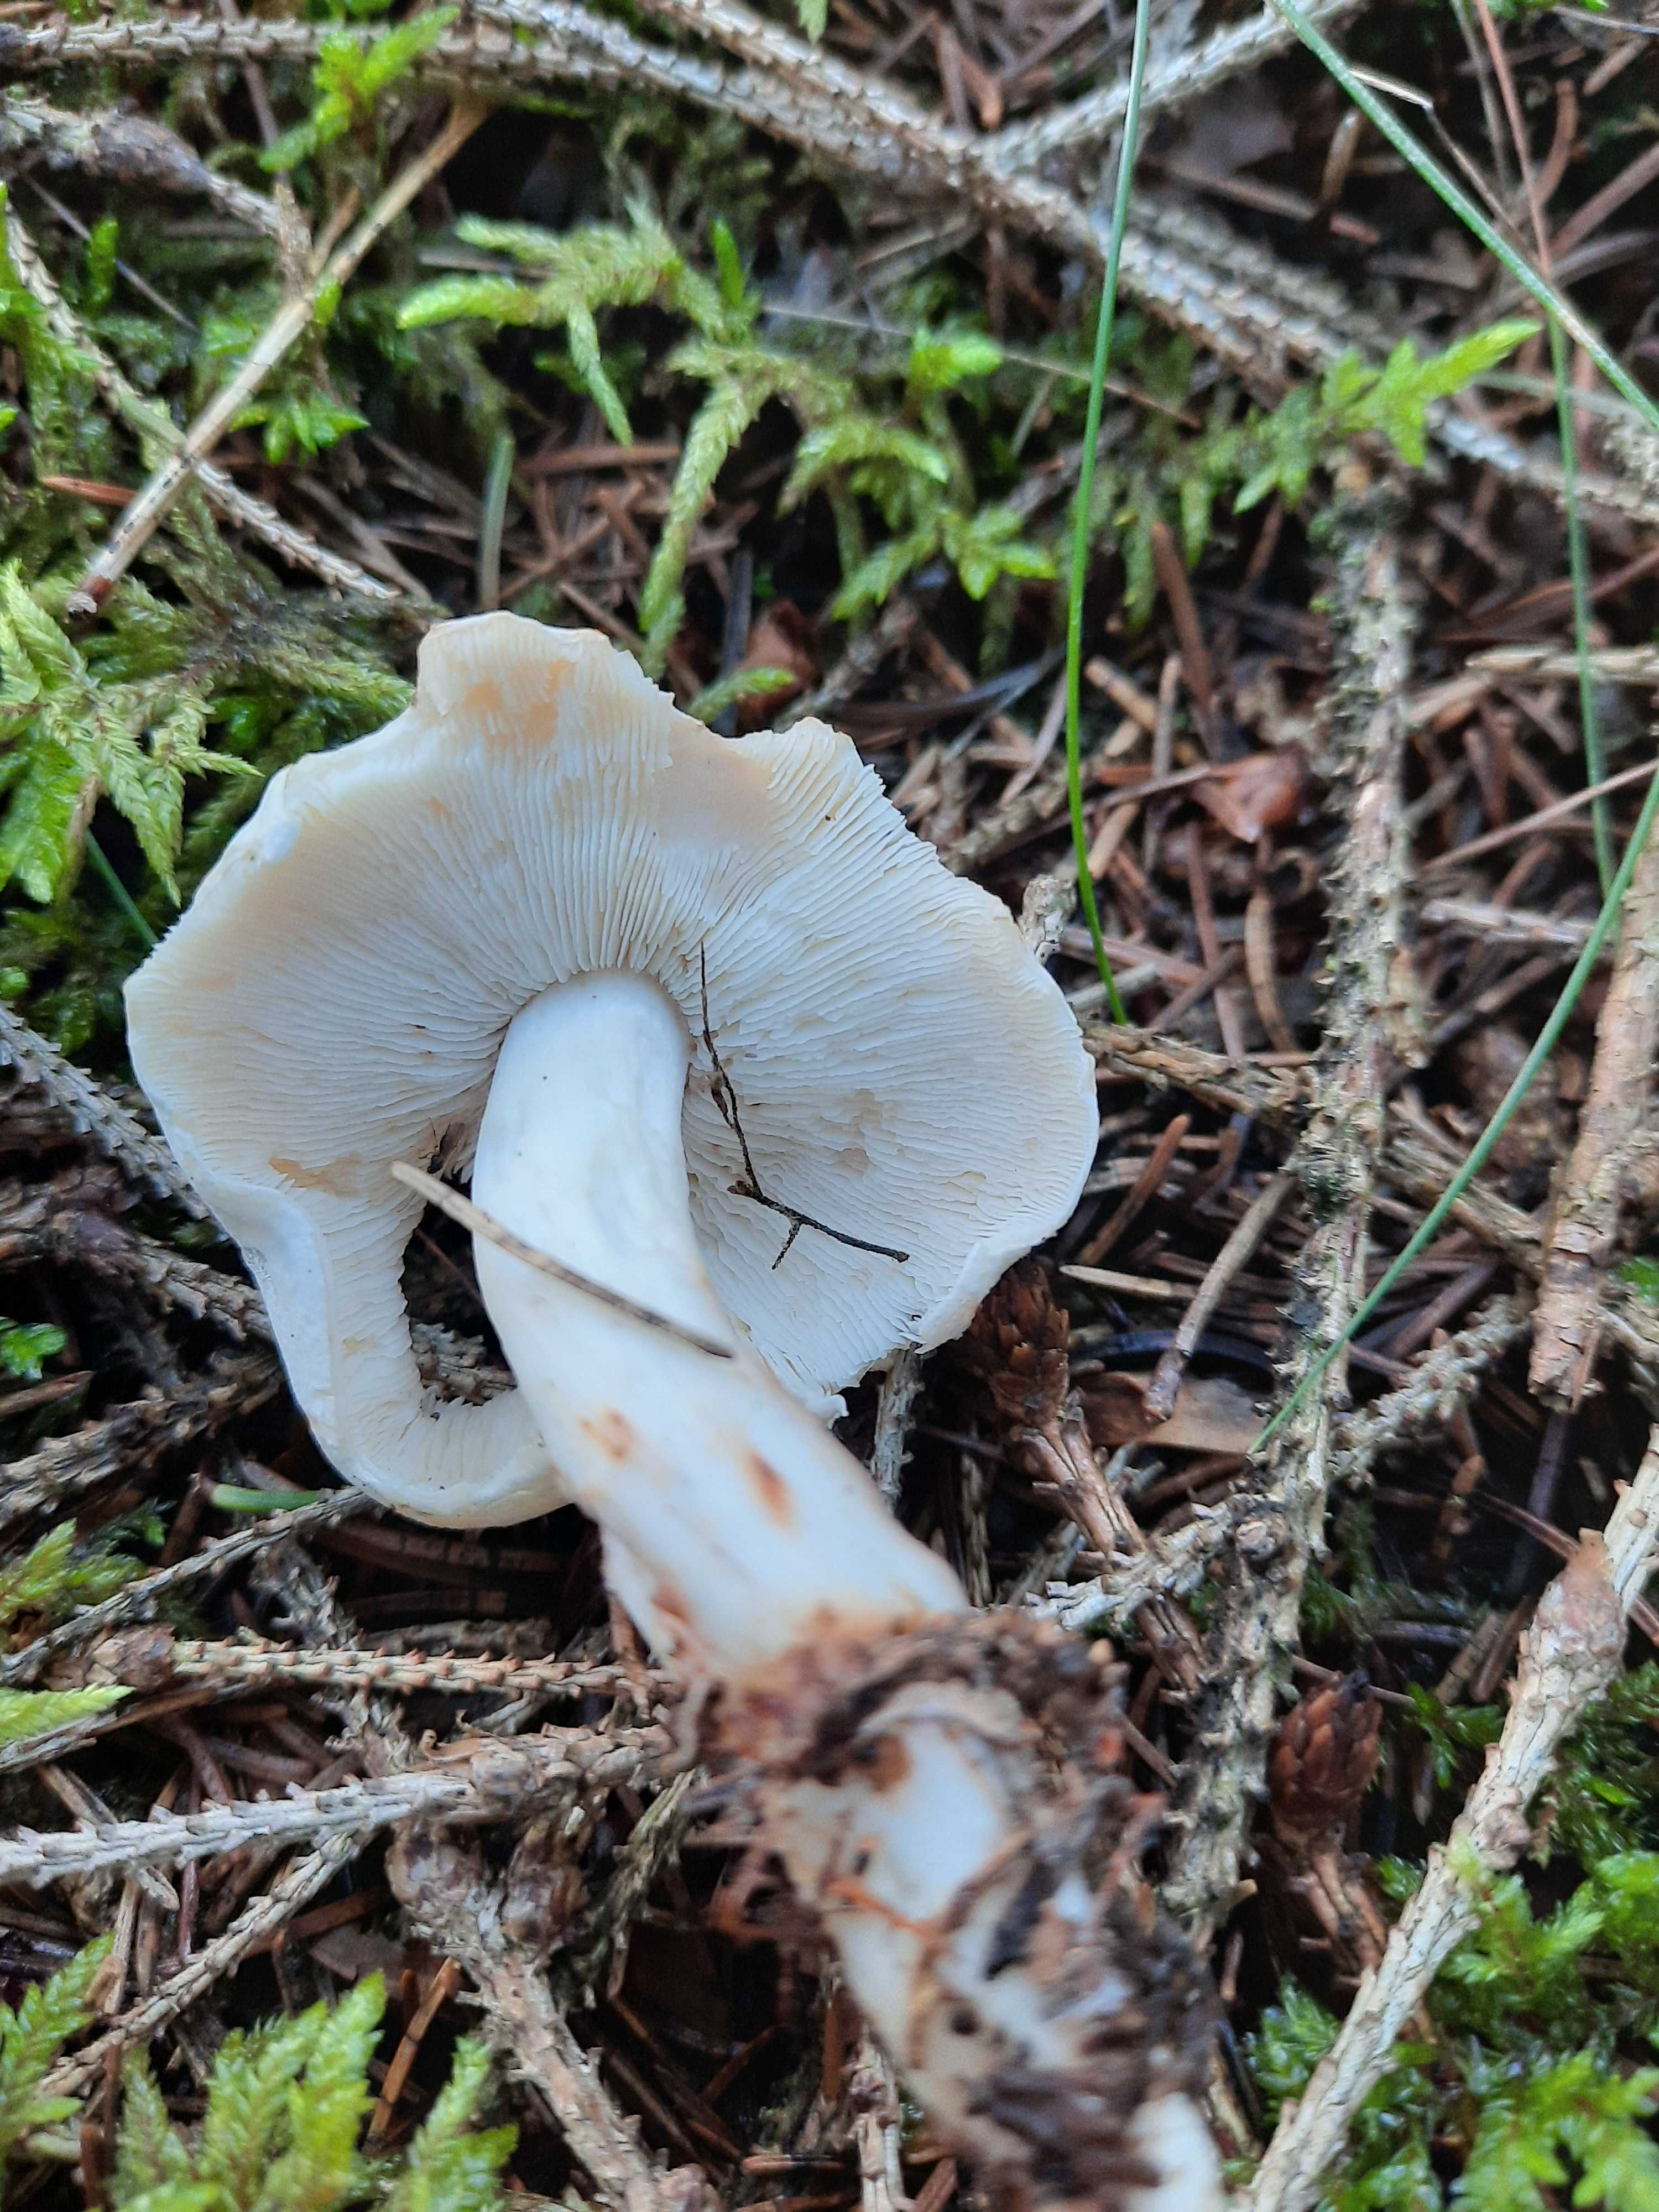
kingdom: Fungi
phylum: Basidiomycota
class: Agaricomycetes
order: Agaricales
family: Omphalotaceae
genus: Rhodocollybia
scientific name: Rhodocollybia maculata
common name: plettet fladhat
